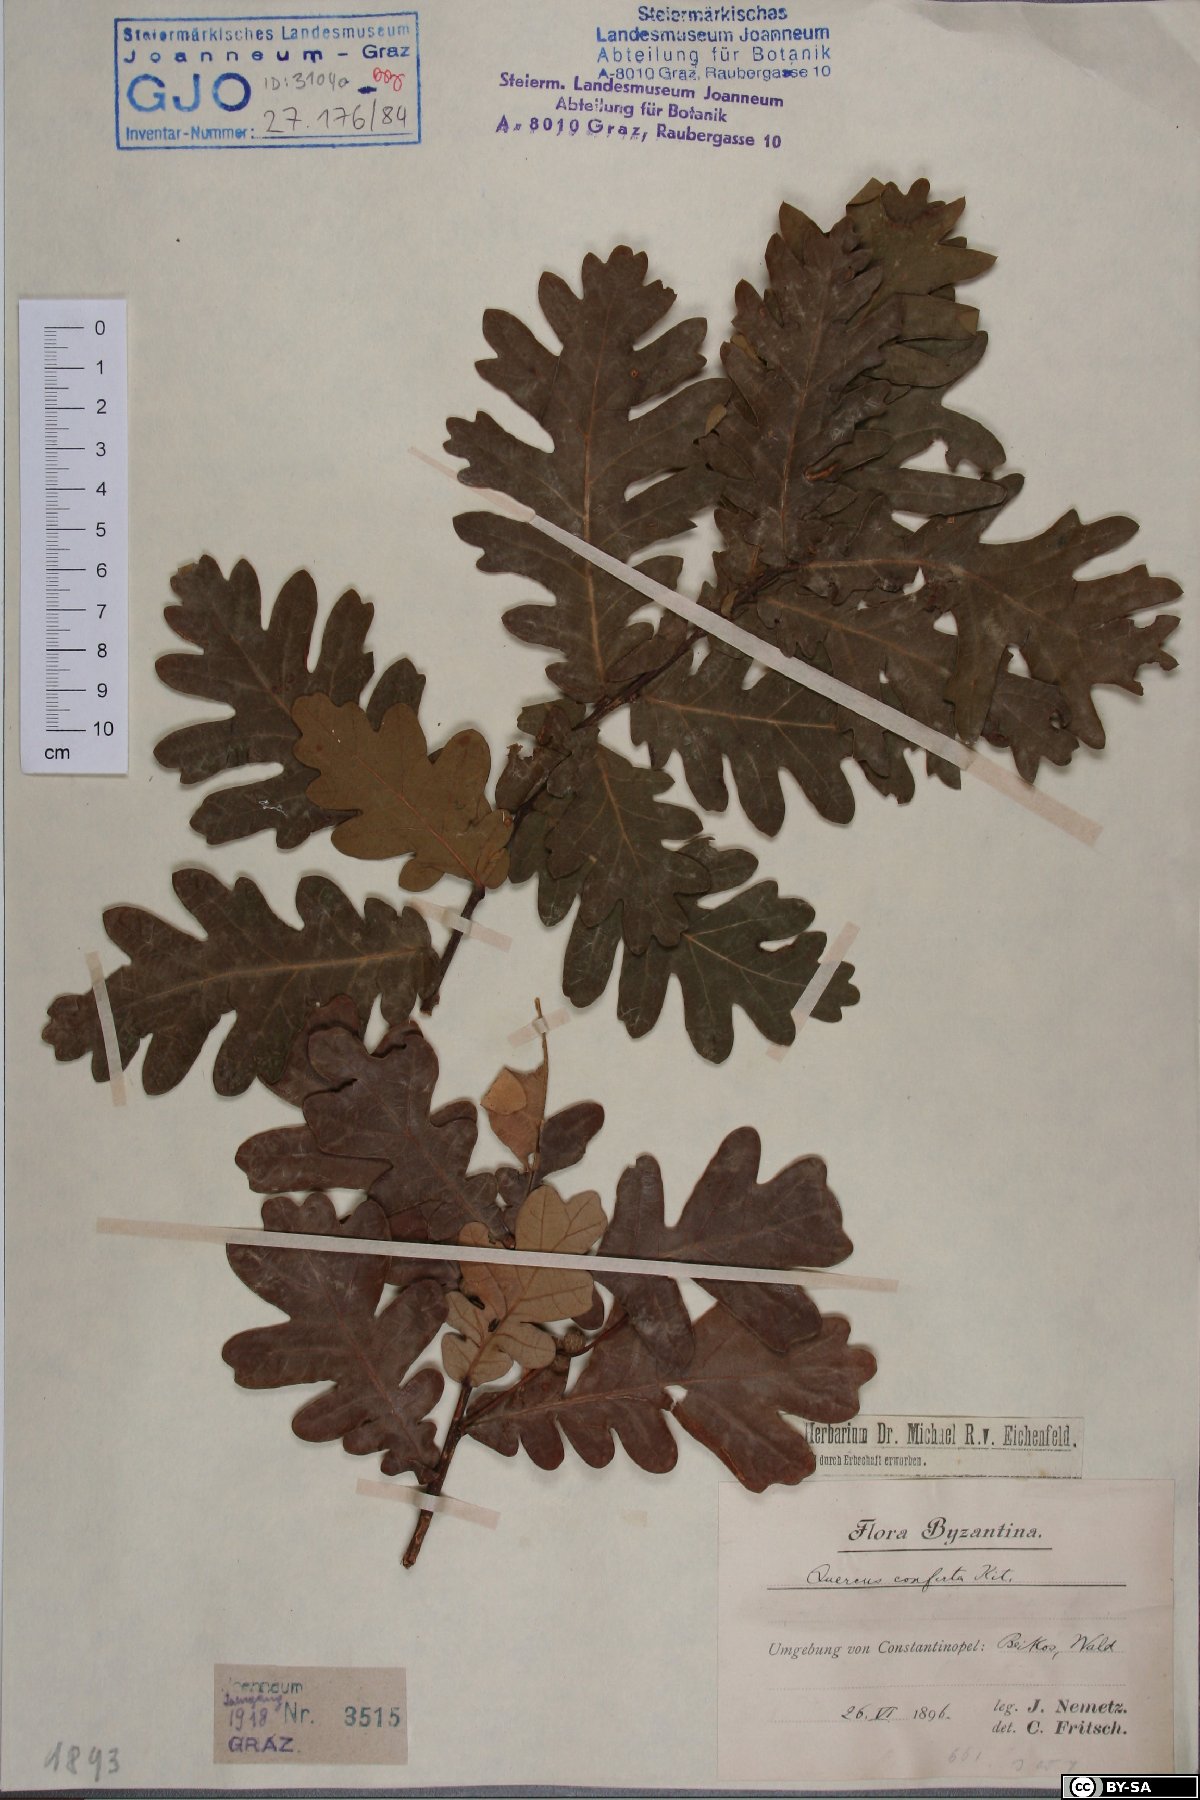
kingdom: Plantae
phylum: Tracheophyta
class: Magnoliopsida
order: Fagales
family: Fagaceae
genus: Quercus
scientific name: Quercus conferta
